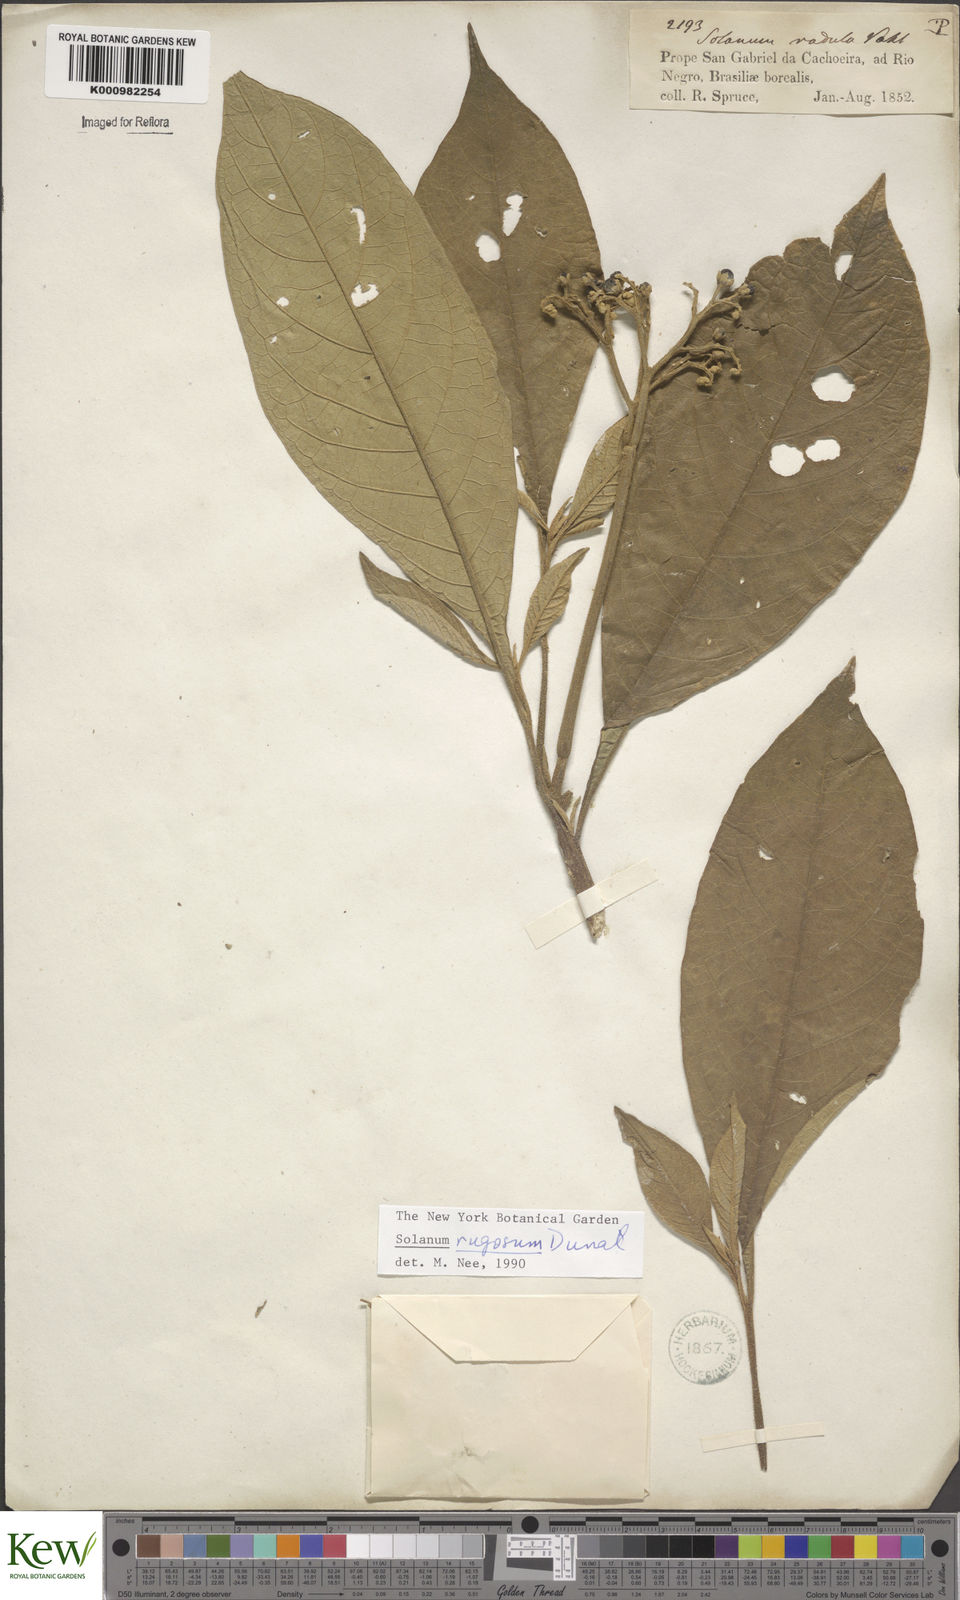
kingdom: Plantae
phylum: Tracheophyta
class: Magnoliopsida
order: Solanales
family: Solanaceae
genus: Solanum
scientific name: Solanum rugosum
